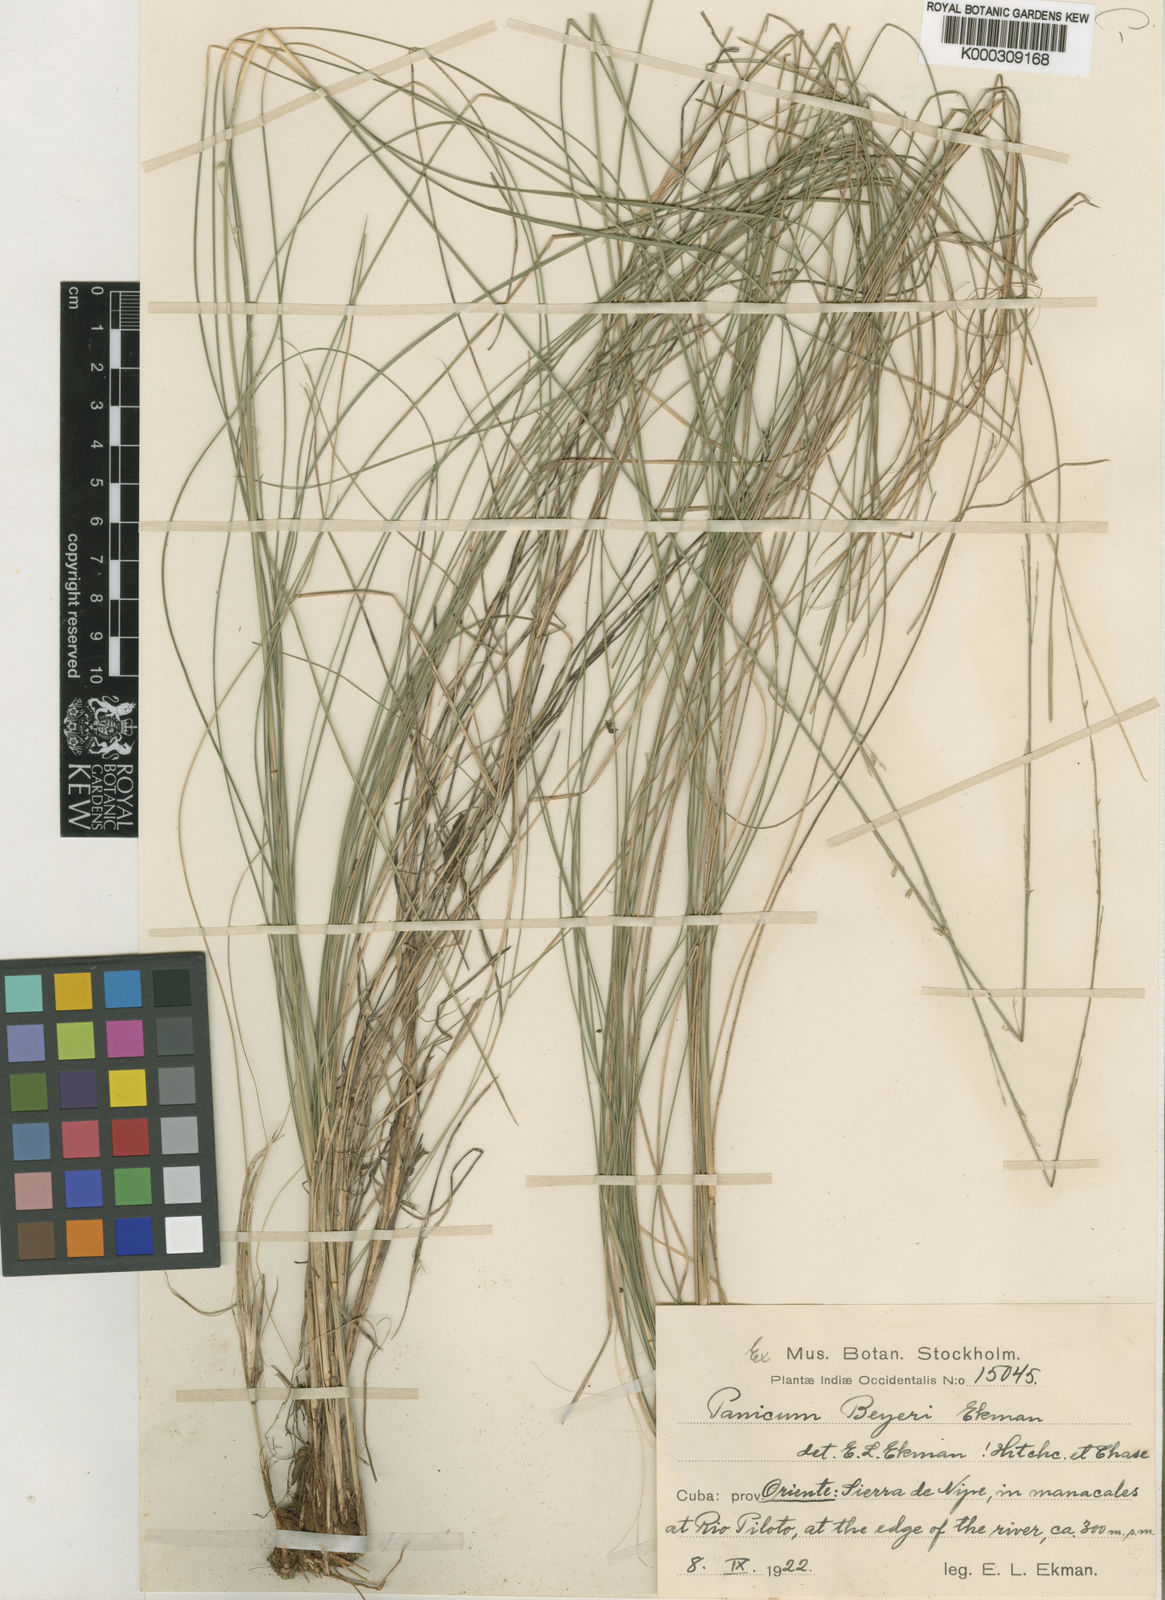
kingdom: Plantae
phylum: Tracheophyta
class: Liliopsida
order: Poales
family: Poaceae
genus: Coleataenia
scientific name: Coleataenia beyeri
